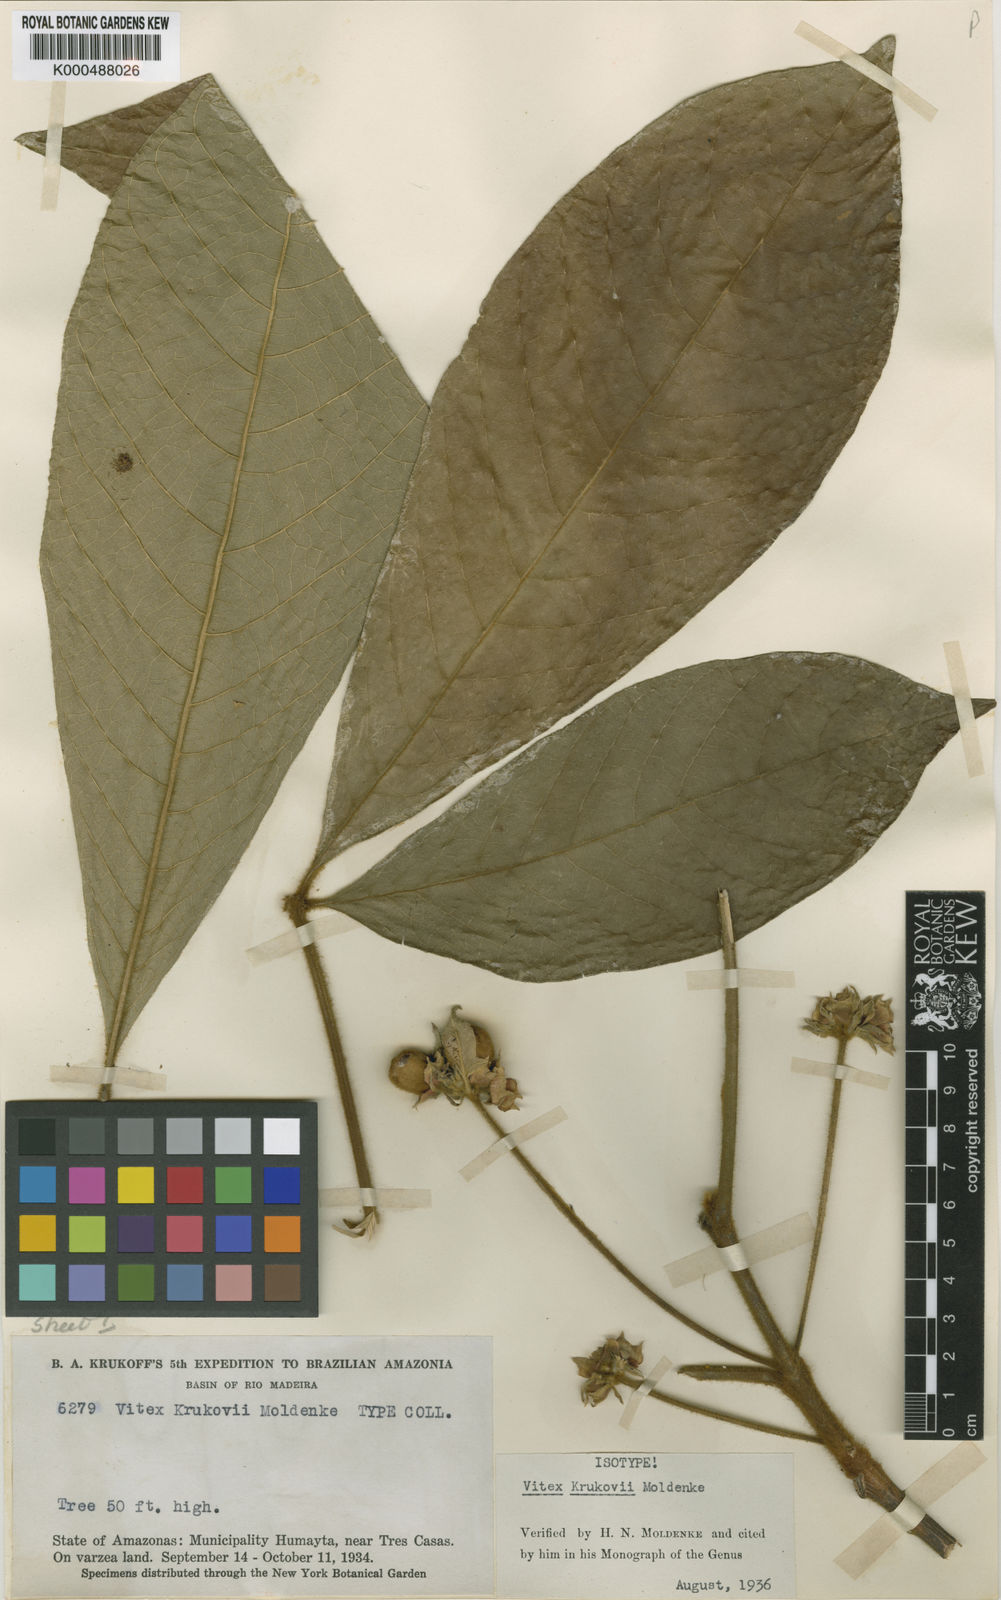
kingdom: Plantae
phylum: Tracheophyta
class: Magnoliopsida
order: Lamiales
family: Lamiaceae
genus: Vitex
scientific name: Vitex krukovii
